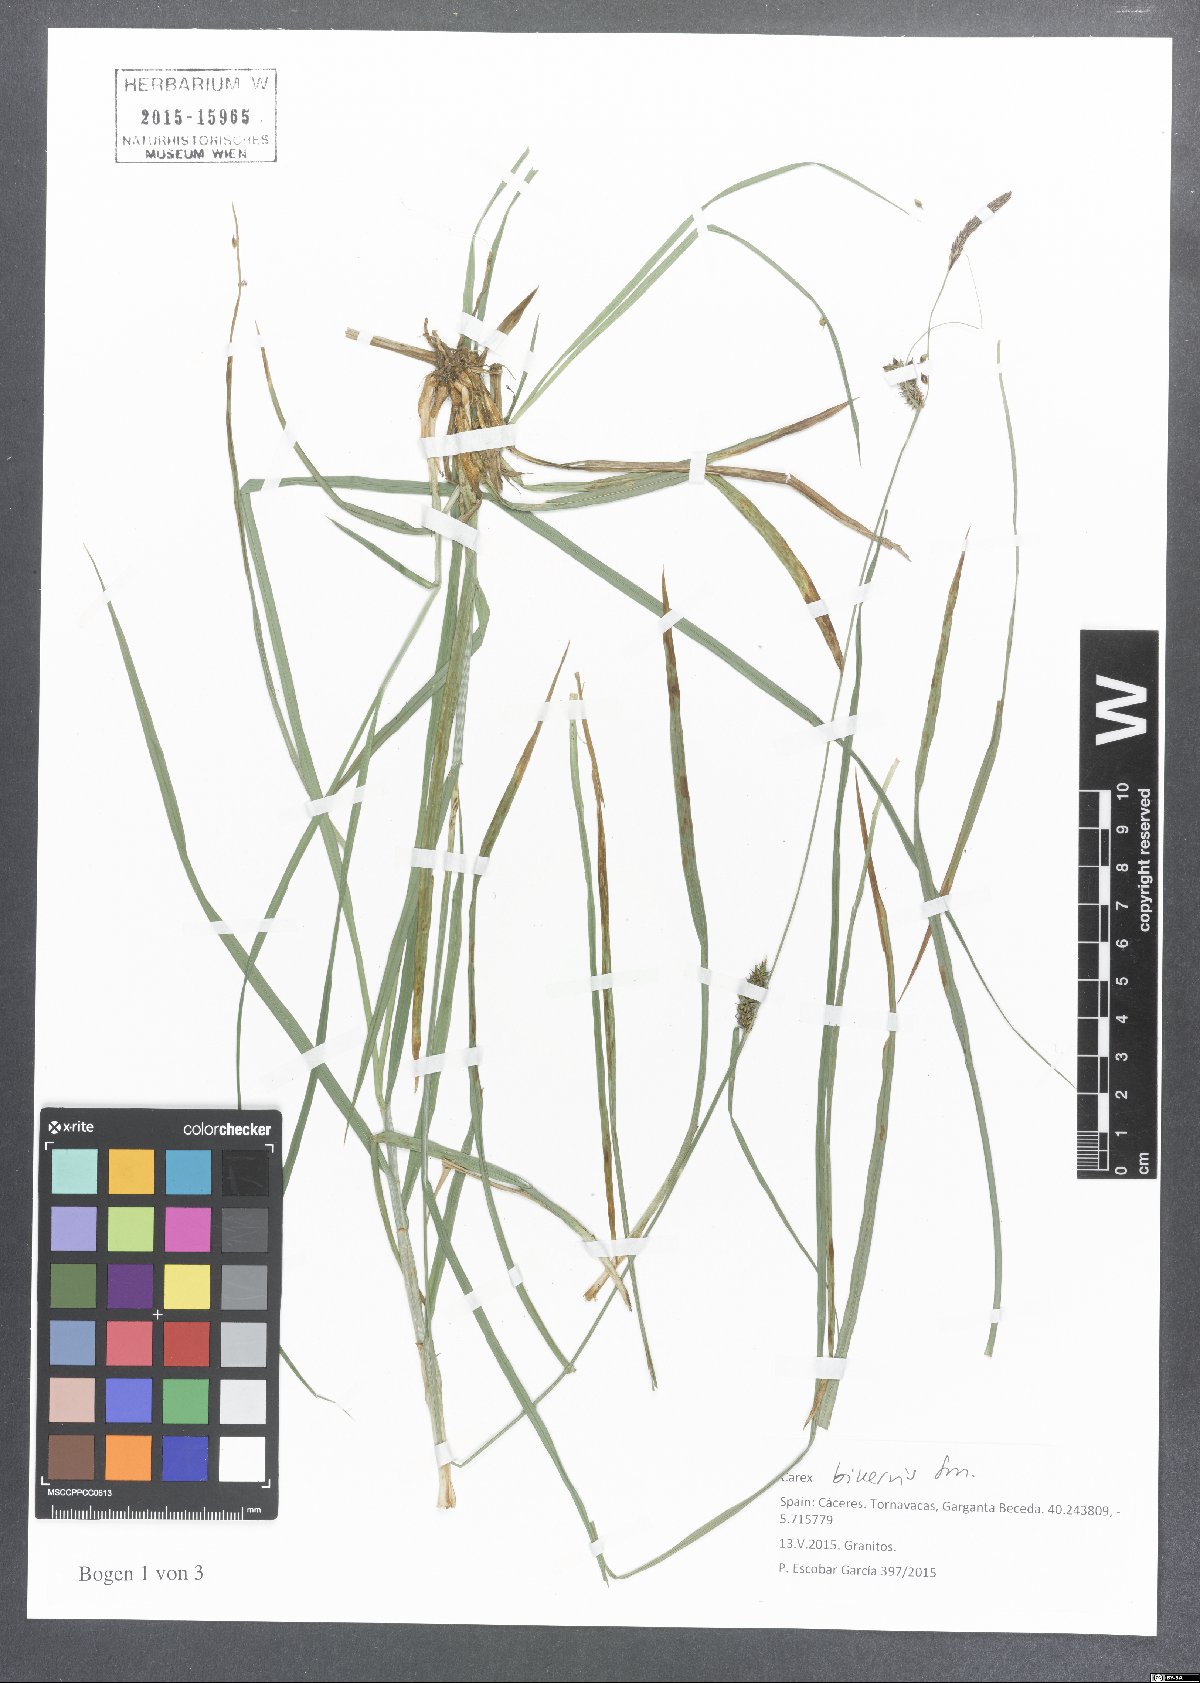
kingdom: Plantae
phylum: Tracheophyta
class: Liliopsida
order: Poales
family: Cyperaceae
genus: Carex
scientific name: Carex binervis
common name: Green-ribbed sedge
